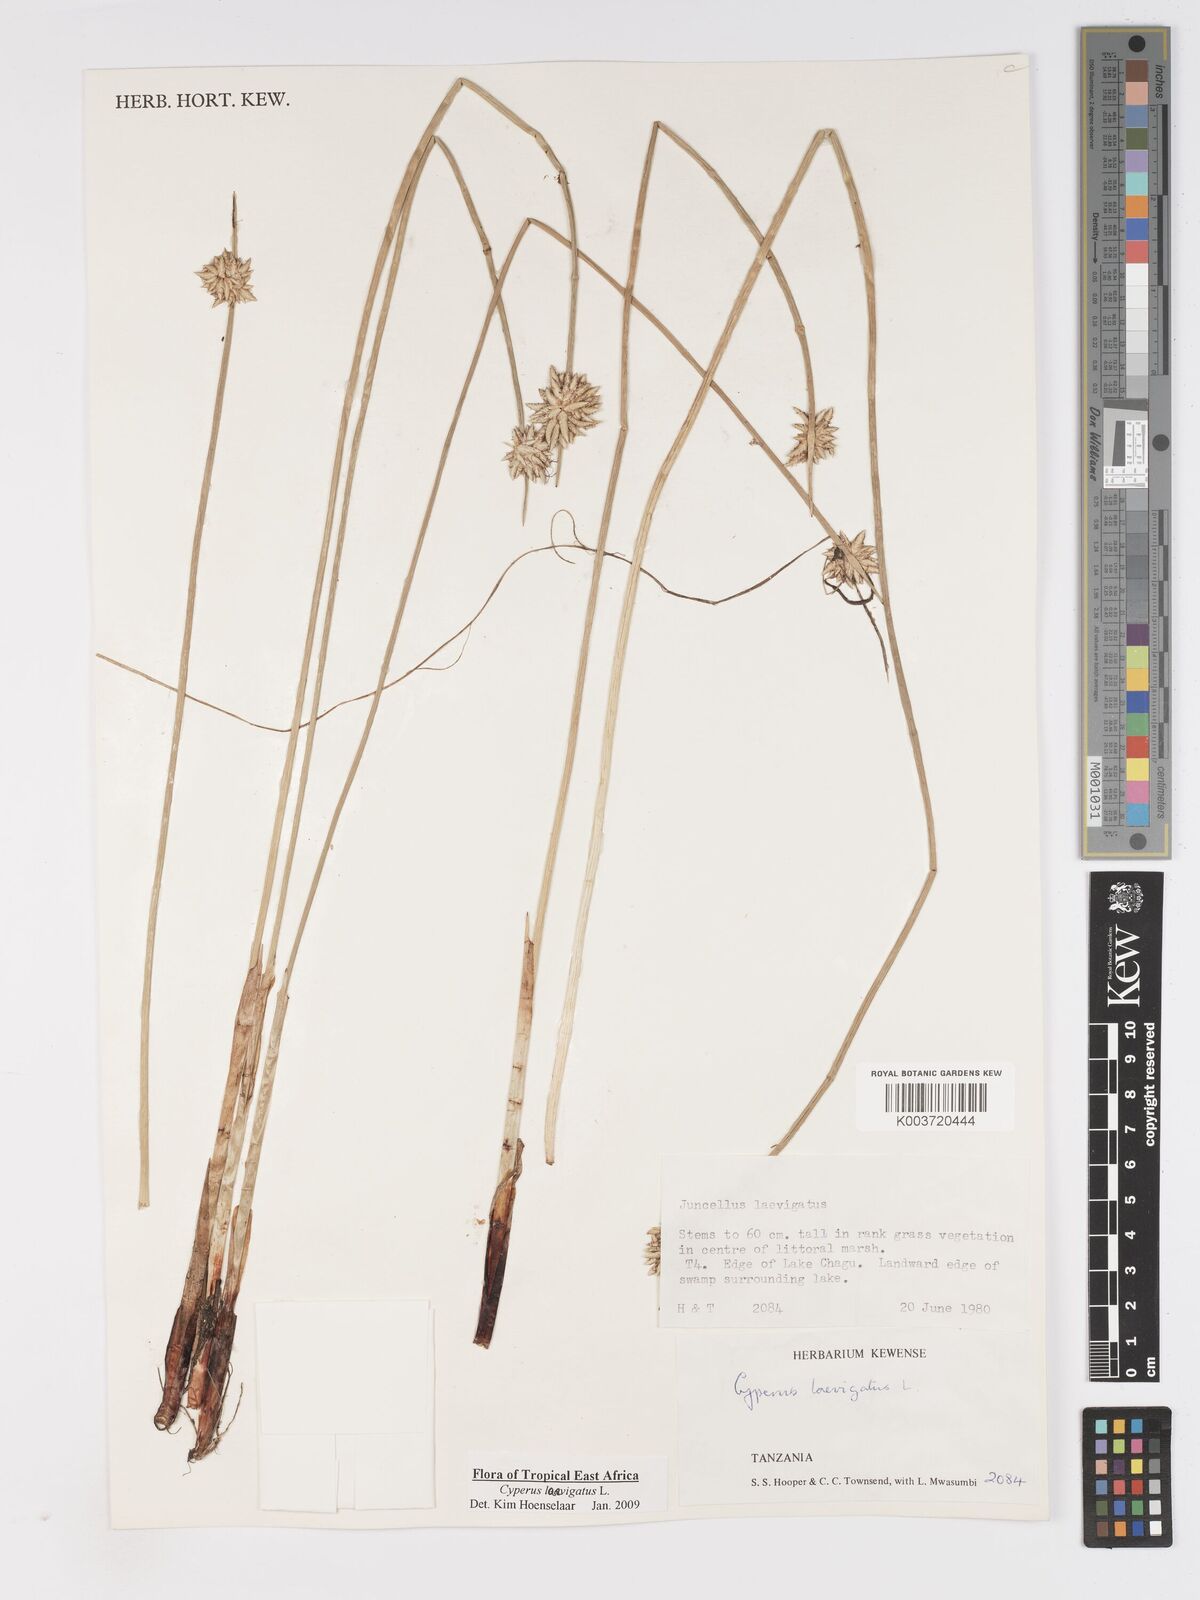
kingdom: Plantae
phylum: Tracheophyta
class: Liliopsida
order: Poales
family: Cyperaceae
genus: Cyperus
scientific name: Cyperus laevigatus
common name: Smooth flat sedge
